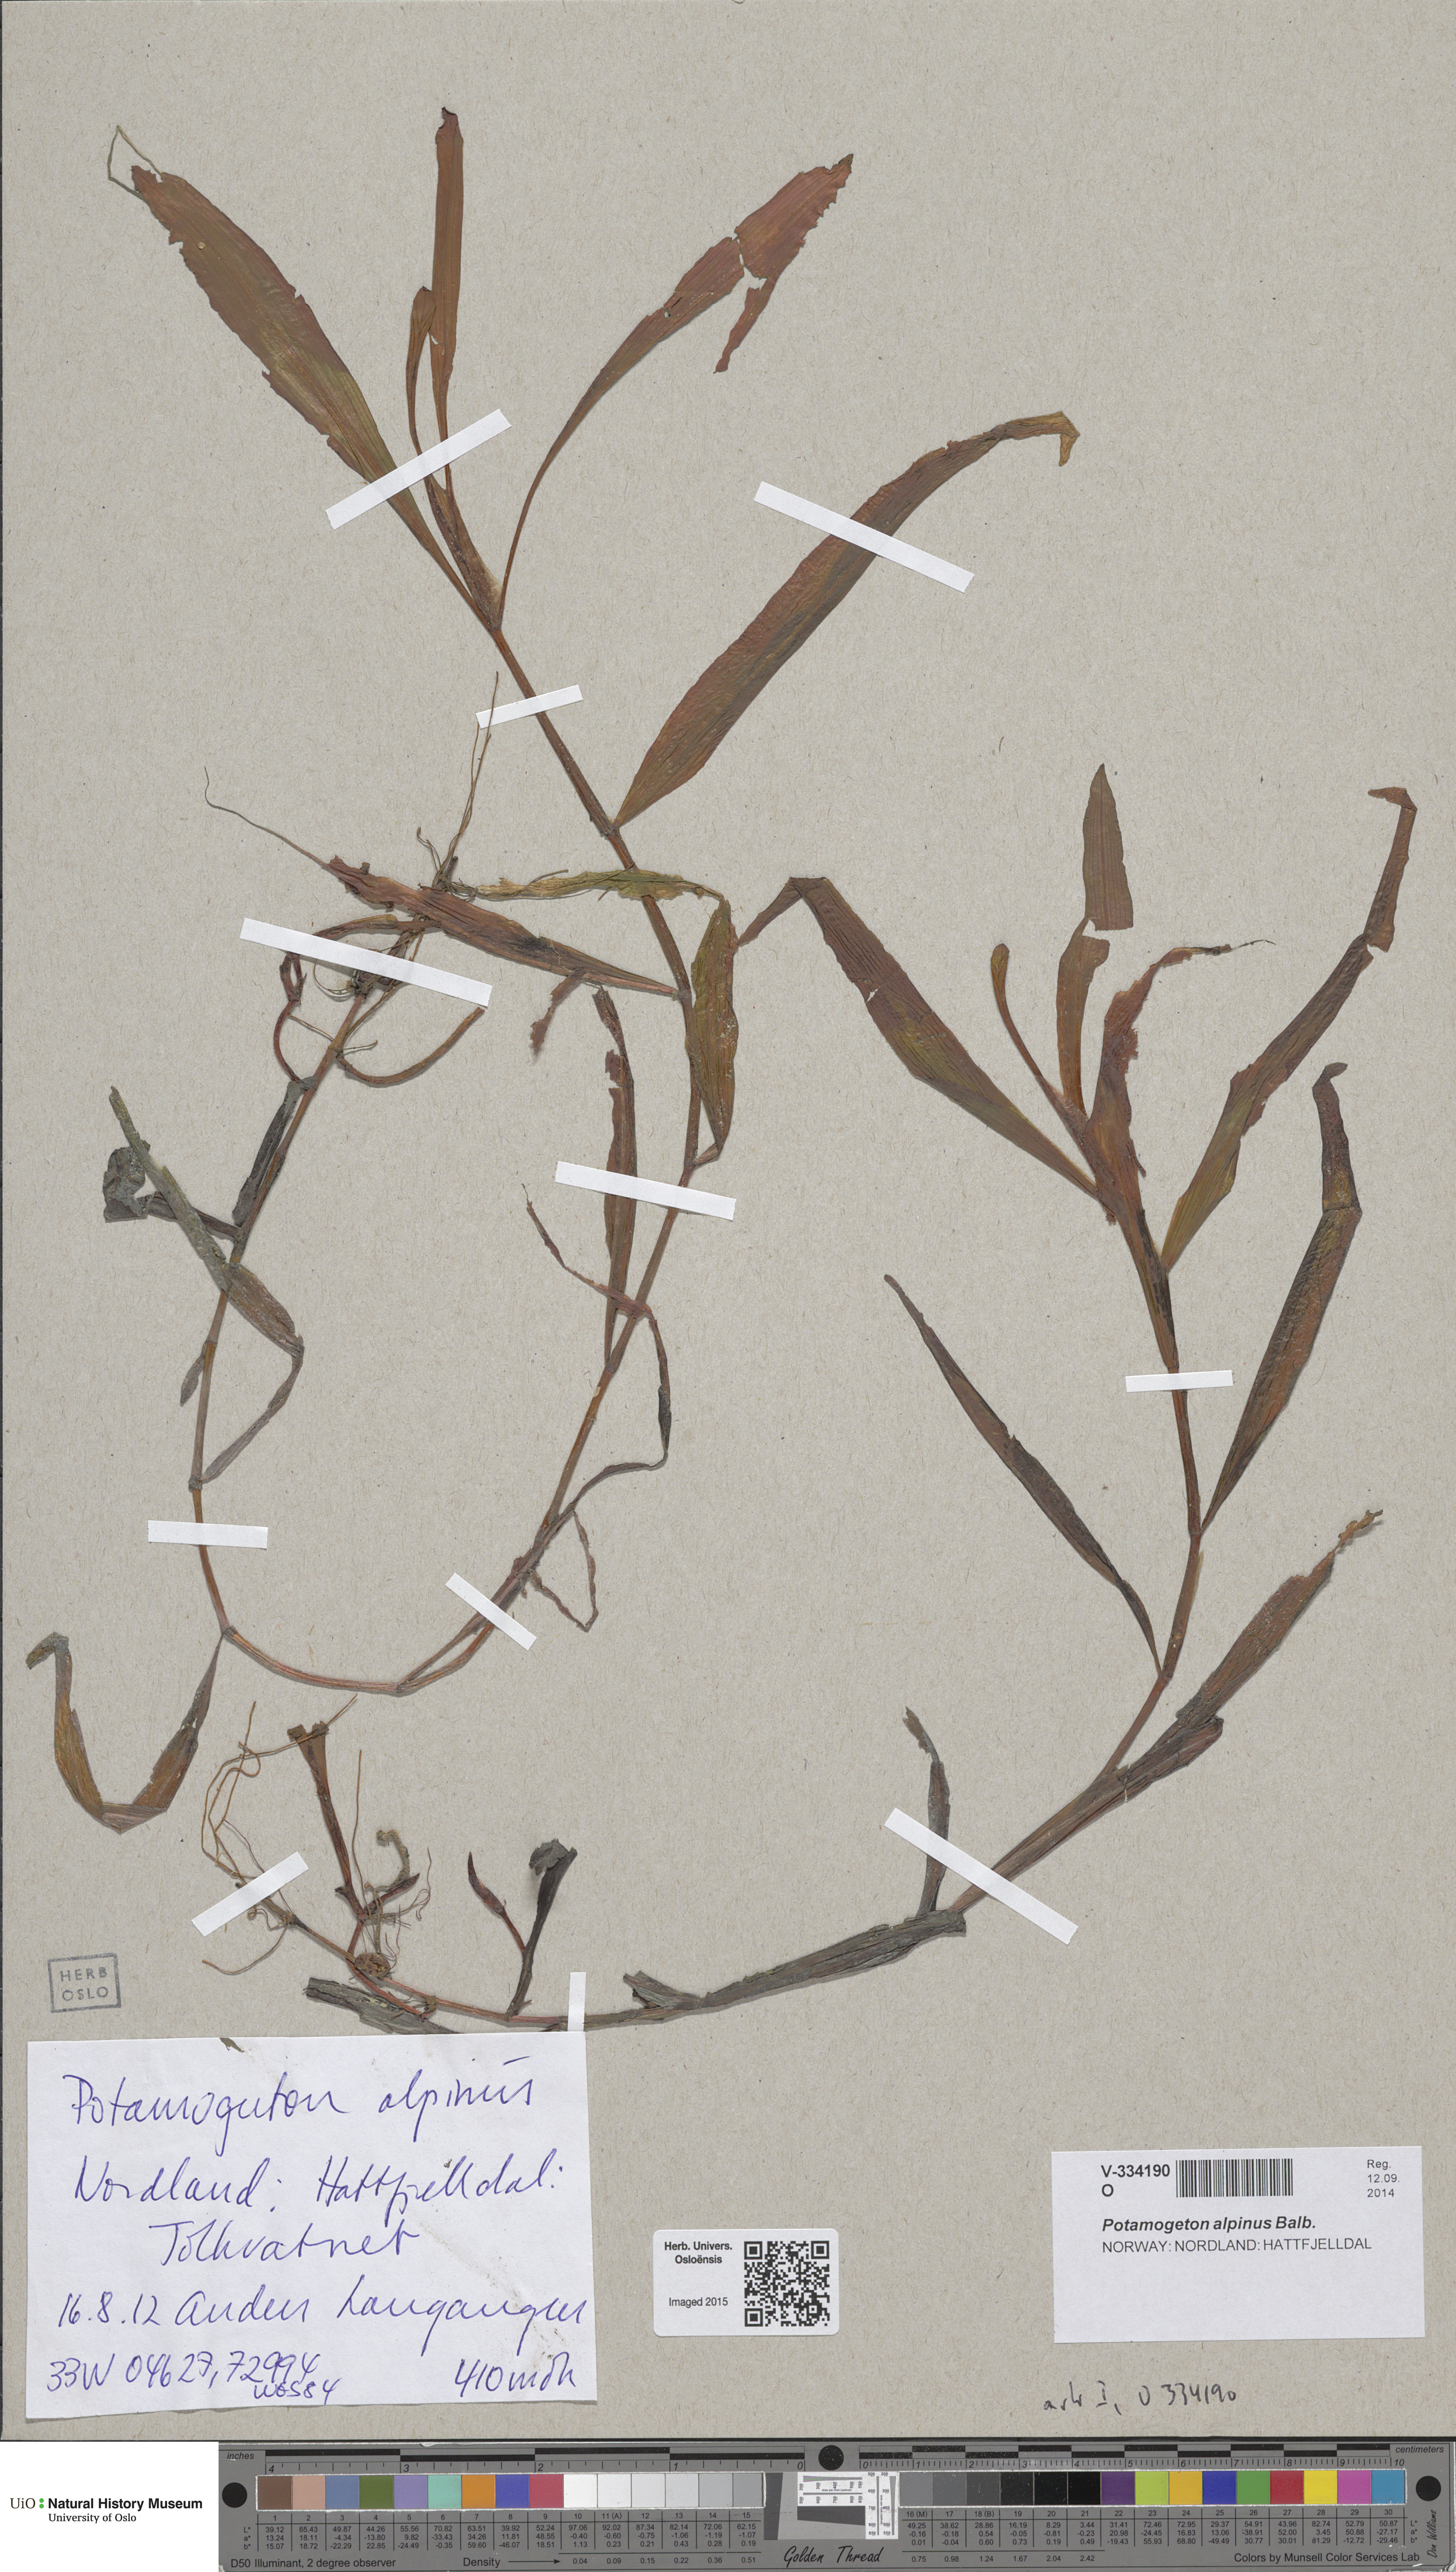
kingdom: Plantae
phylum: Tracheophyta
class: Liliopsida
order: Alismatales
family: Potamogetonaceae
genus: Potamogeton
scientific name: Potamogeton alpinus
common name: Red pondweed
